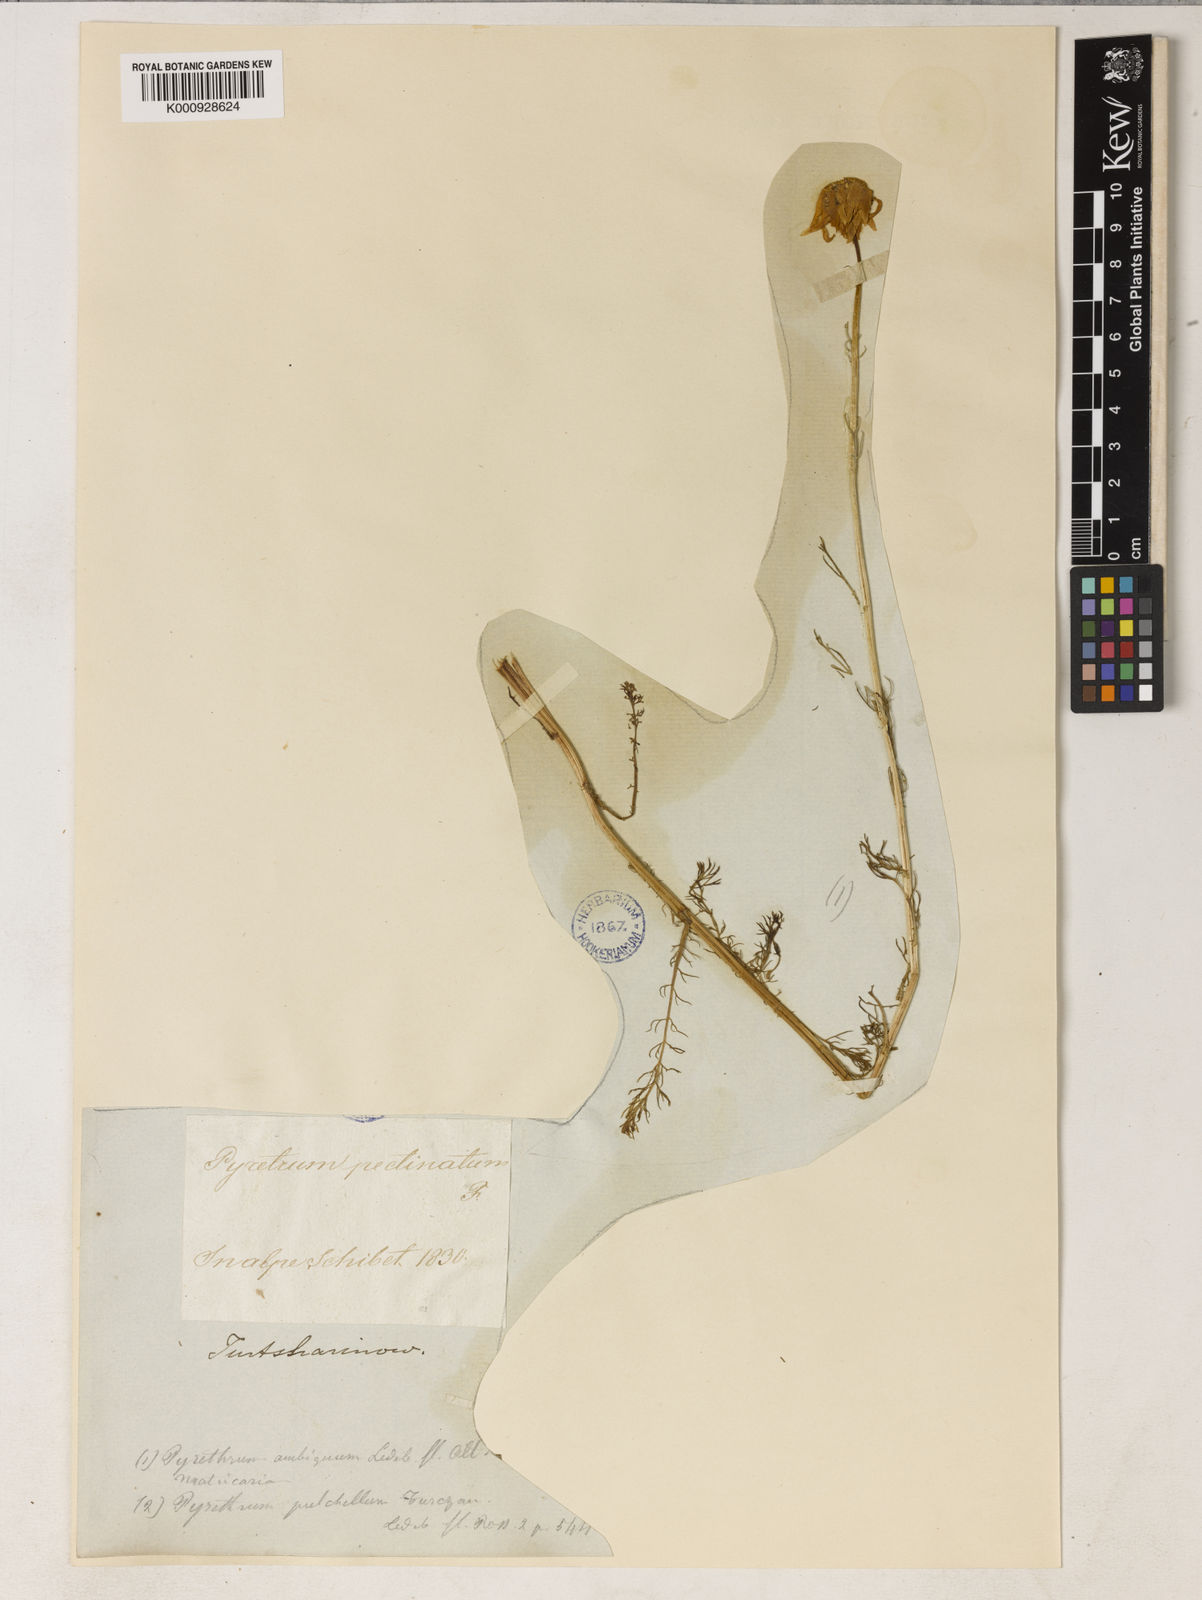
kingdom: Plantae
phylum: Tracheophyta
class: Magnoliopsida
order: Asterales
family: Asteraceae
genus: Tanacetum
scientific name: Tanacetum pulchrum
